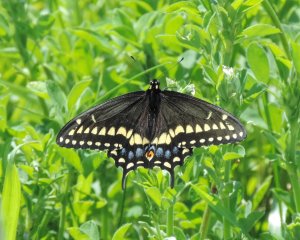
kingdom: Animalia
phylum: Arthropoda
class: Insecta
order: Lepidoptera
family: Papilionidae
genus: Papilio
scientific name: Papilio polyxenes
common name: Black Swallowtail
